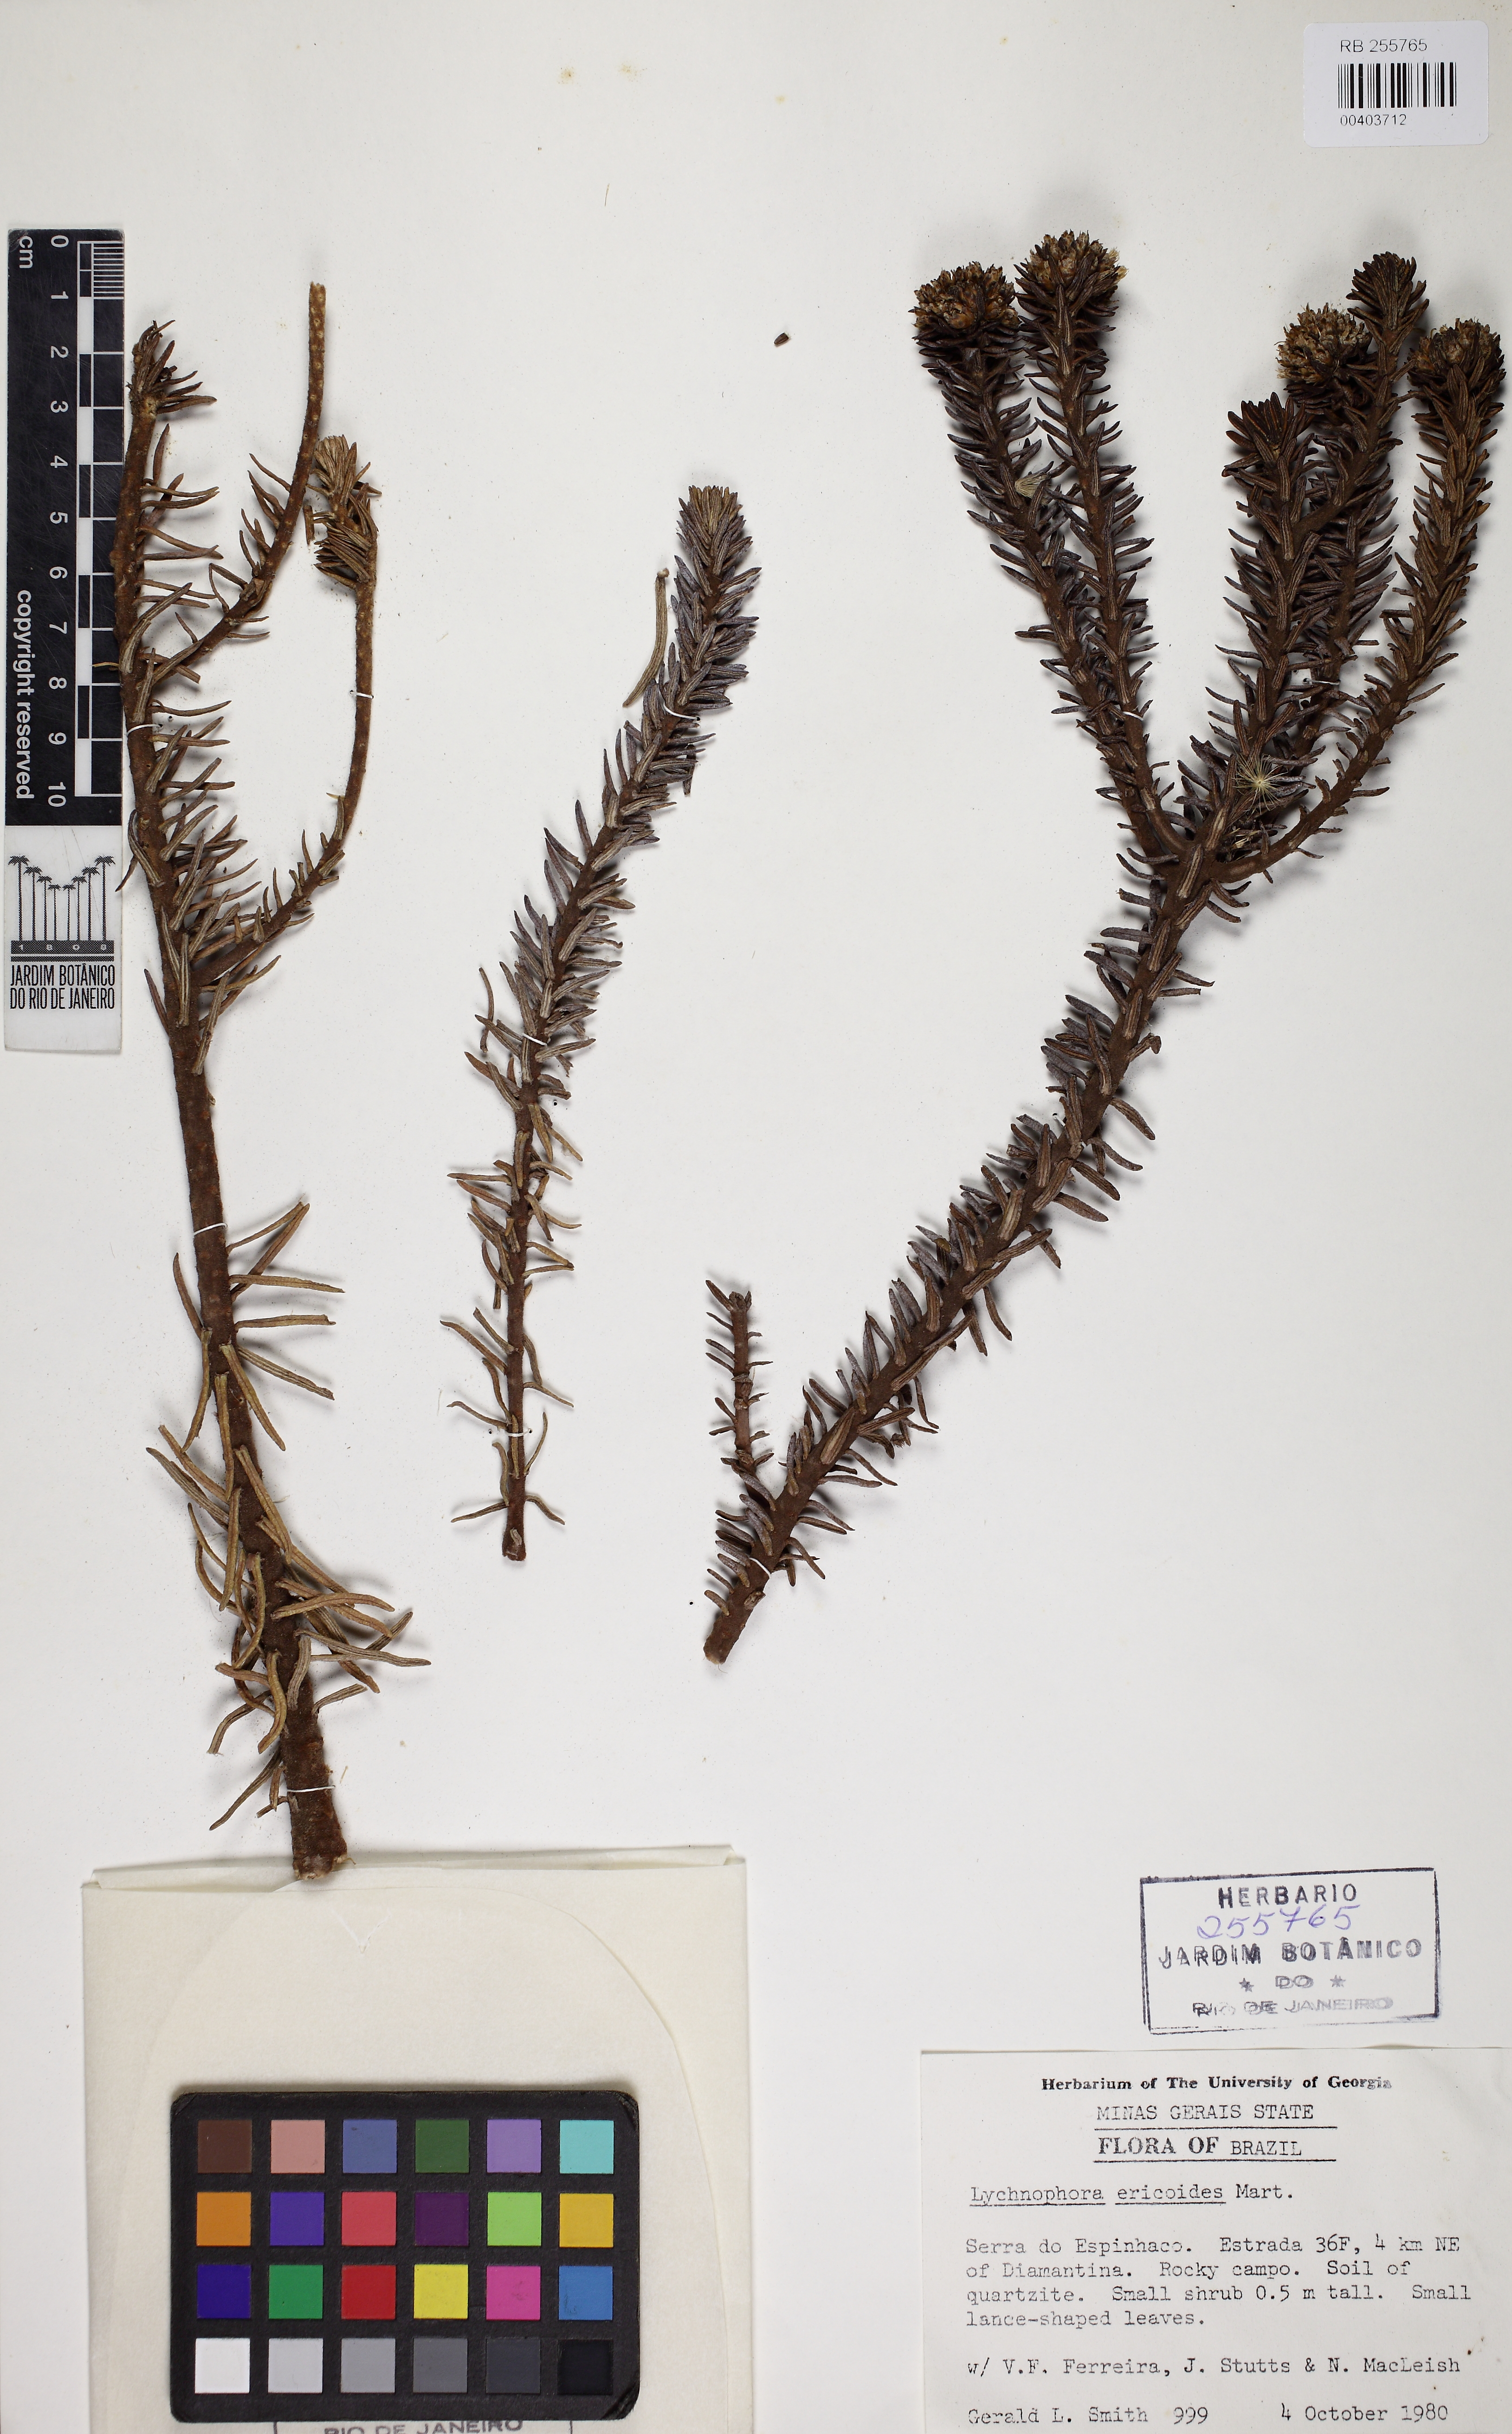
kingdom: Plantae
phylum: Tracheophyta
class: Magnoliopsida
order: Asterales
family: Asteraceae
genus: Lychnophora
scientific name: Lychnophora pohlii
